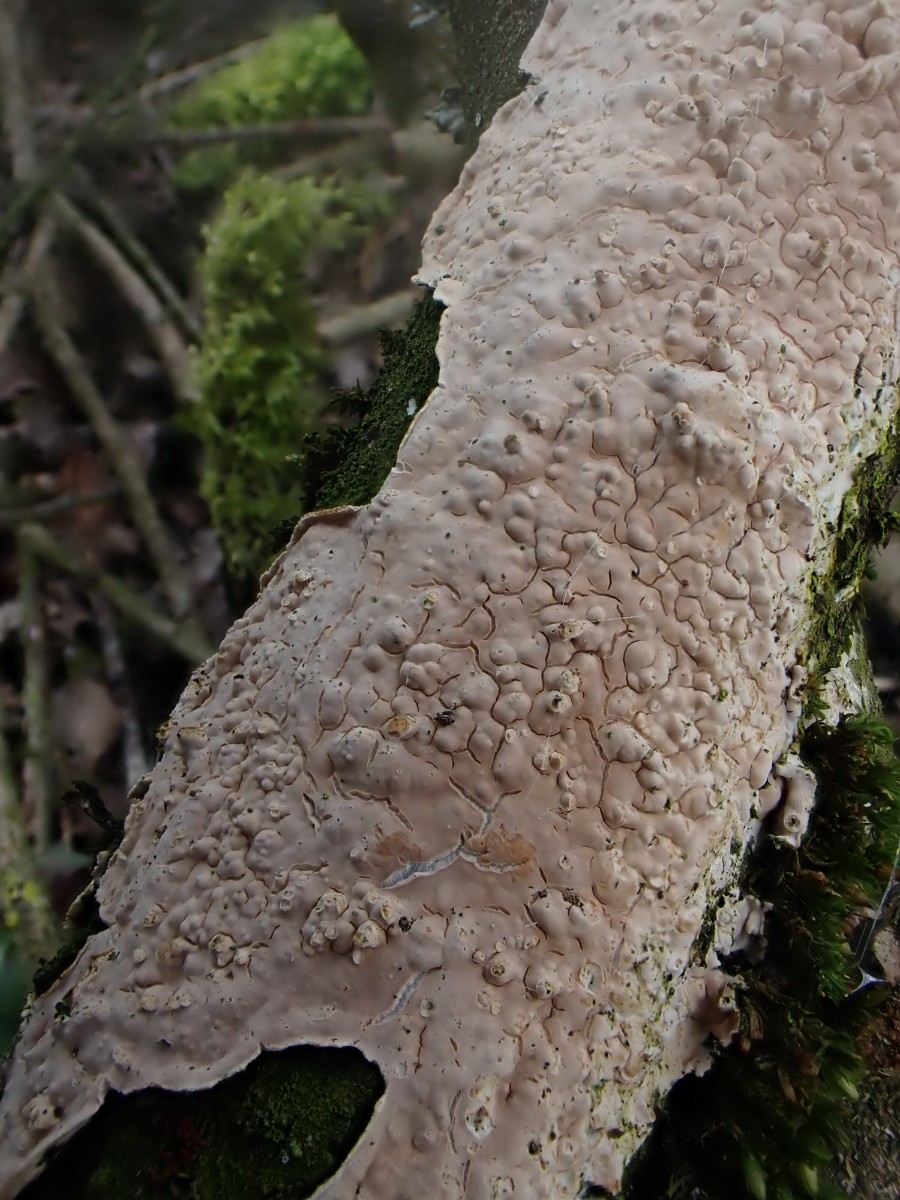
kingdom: Fungi
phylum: Basidiomycota
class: Agaricomycetes
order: Agaricales
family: Physalacriaceae
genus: Cylindrobasidium
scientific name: Cylindrobasidium evolvens
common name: sprækkehinde
